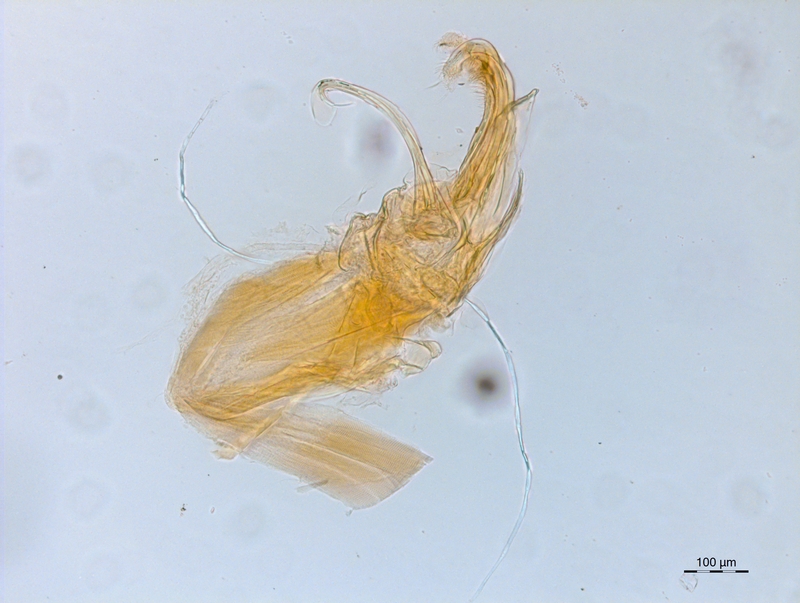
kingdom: Animalia
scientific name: Animalia
